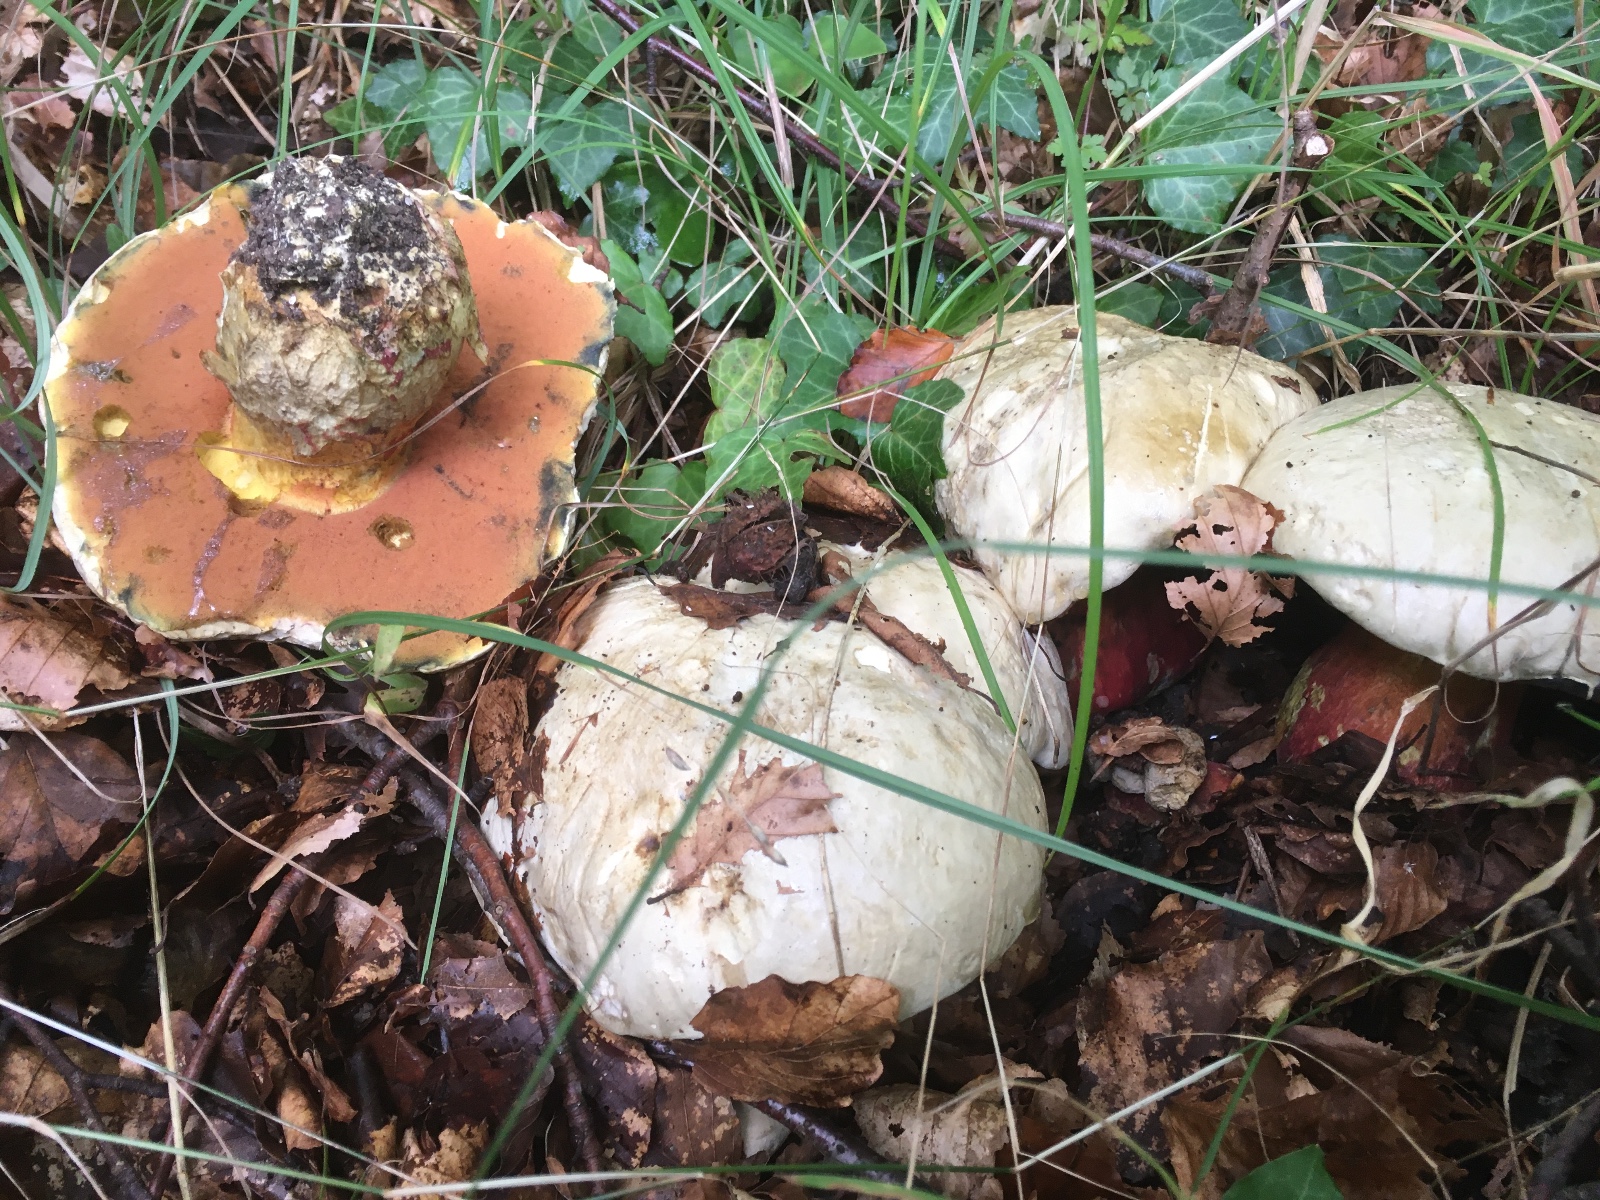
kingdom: Fungi
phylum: Basidiomycota
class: Agaricomycetes
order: Boletales
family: Boletaceae
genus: Rubroboletus
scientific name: Rubroboletus satanas
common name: Satans rørhat
